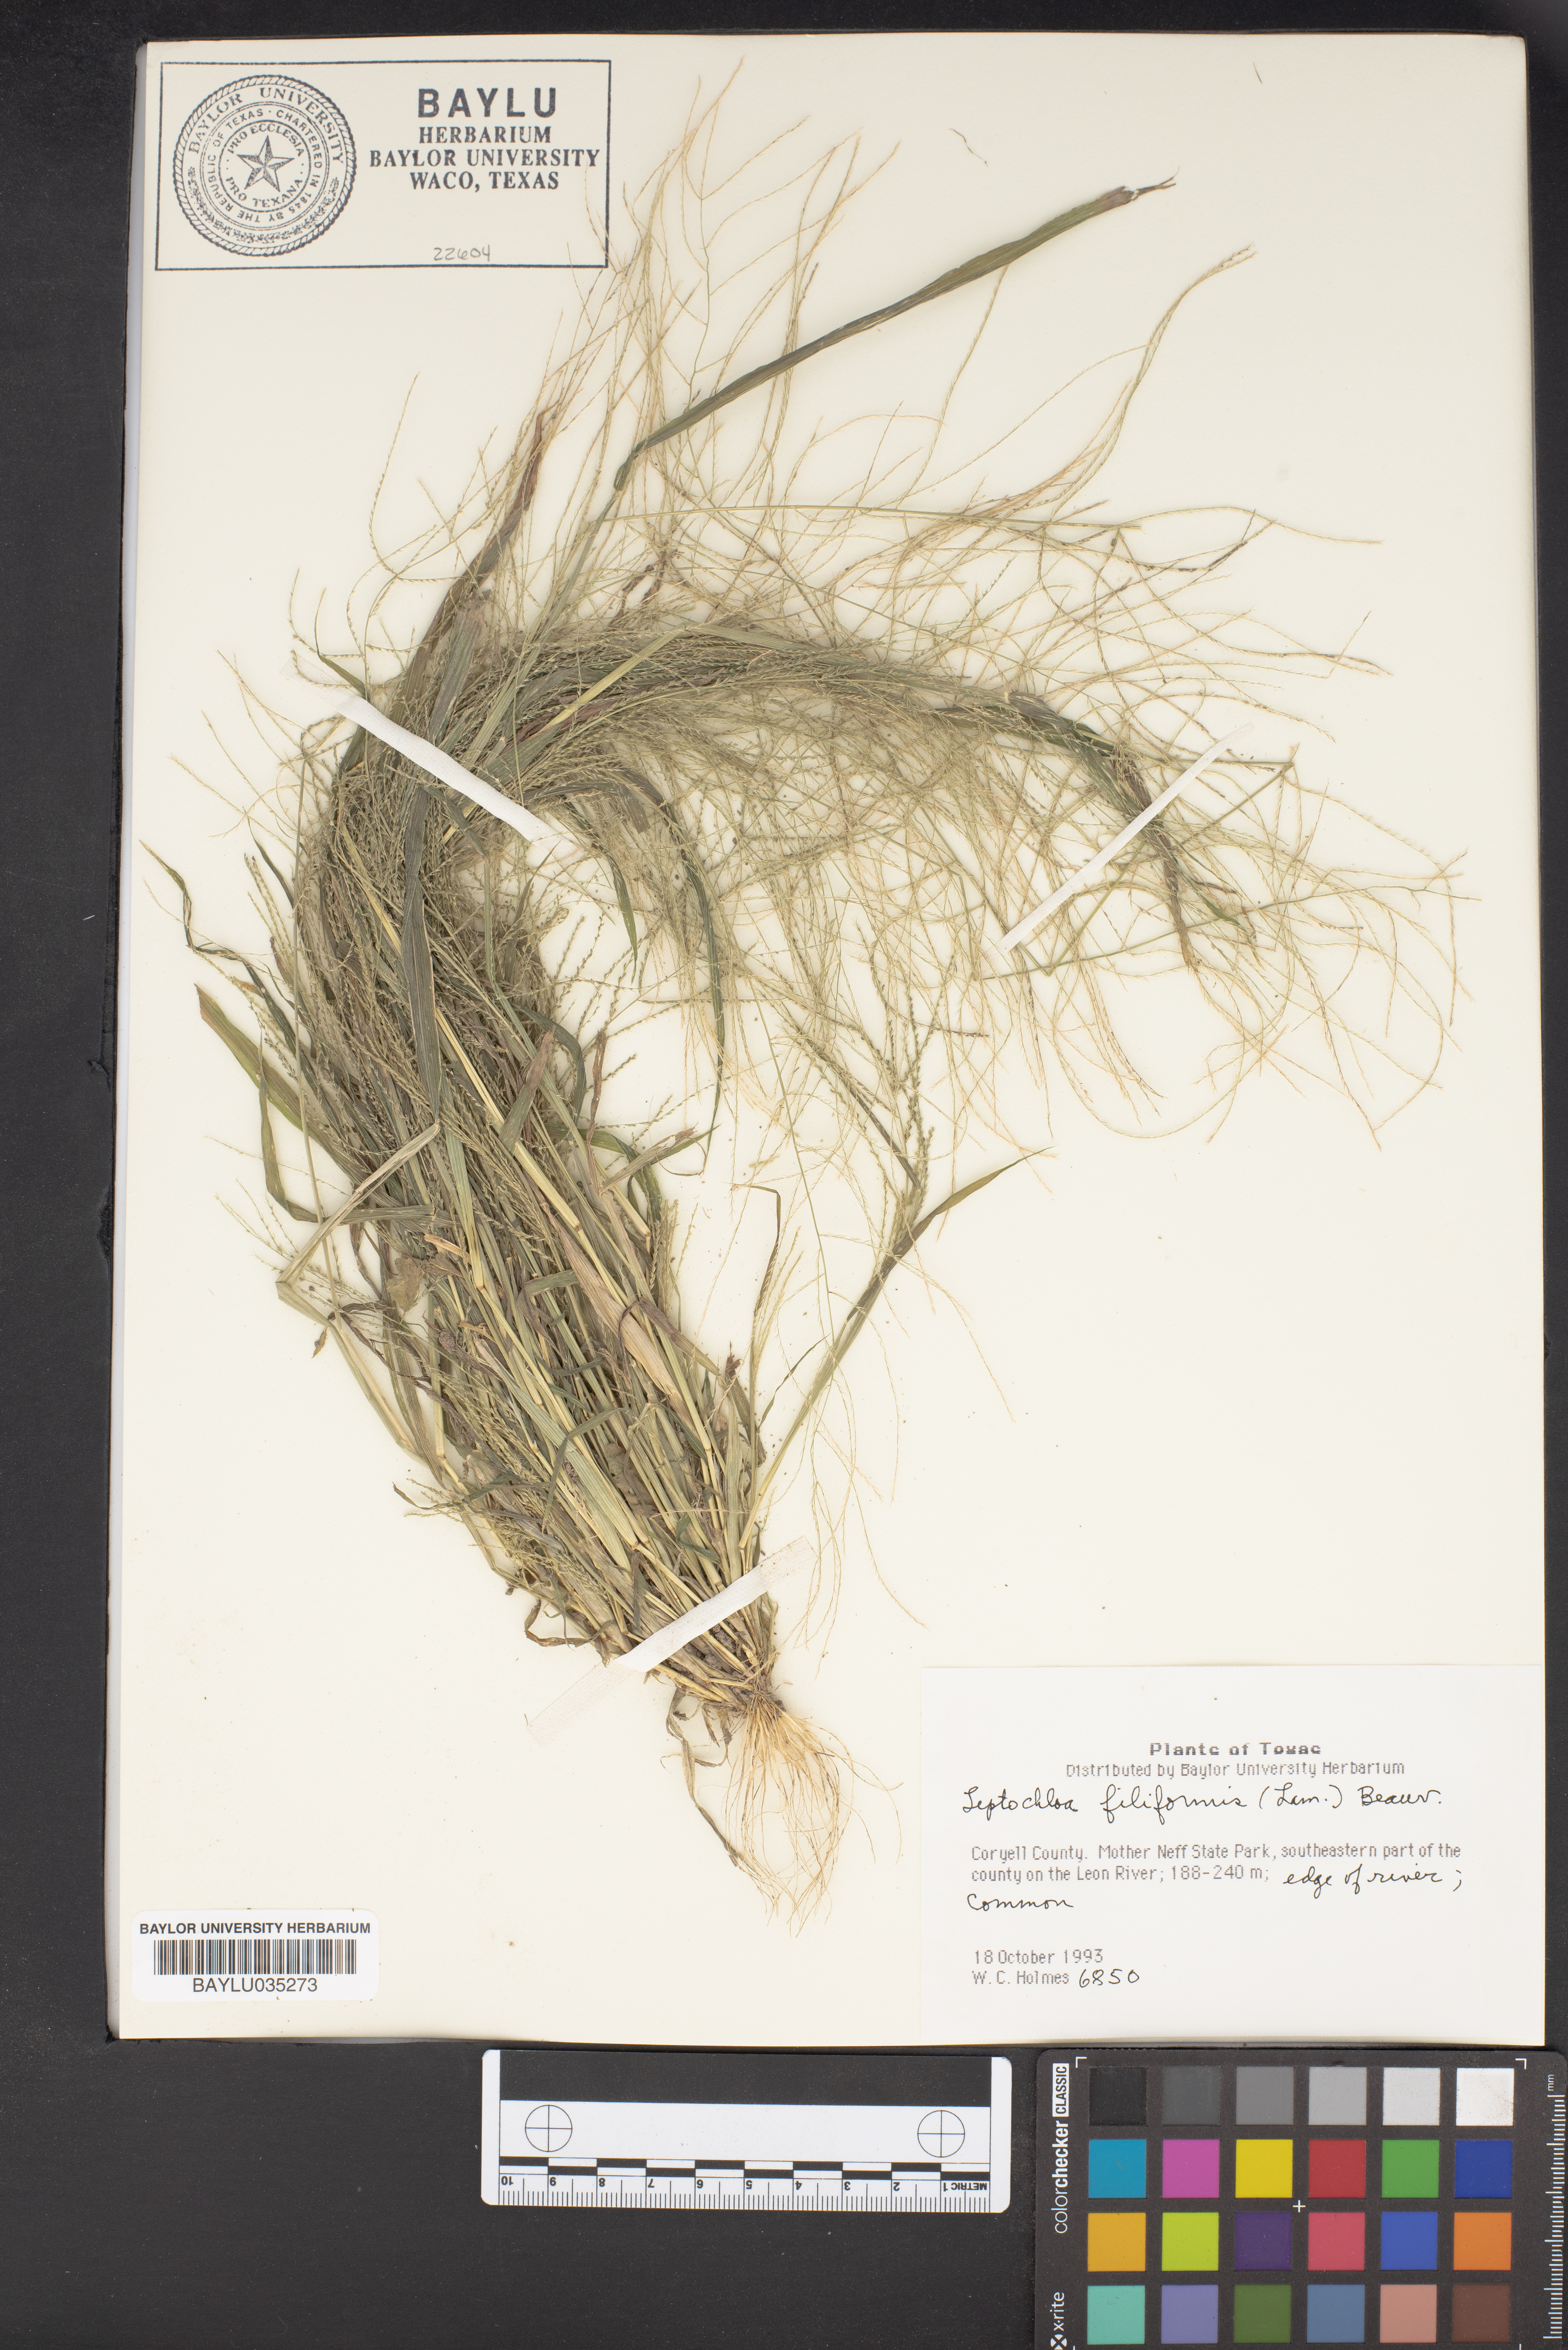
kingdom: Plantae
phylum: Tracheophyta
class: Liliopsida
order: Poales
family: Poaceae
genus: Leptochloa
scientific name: Leptochloa mucronata
